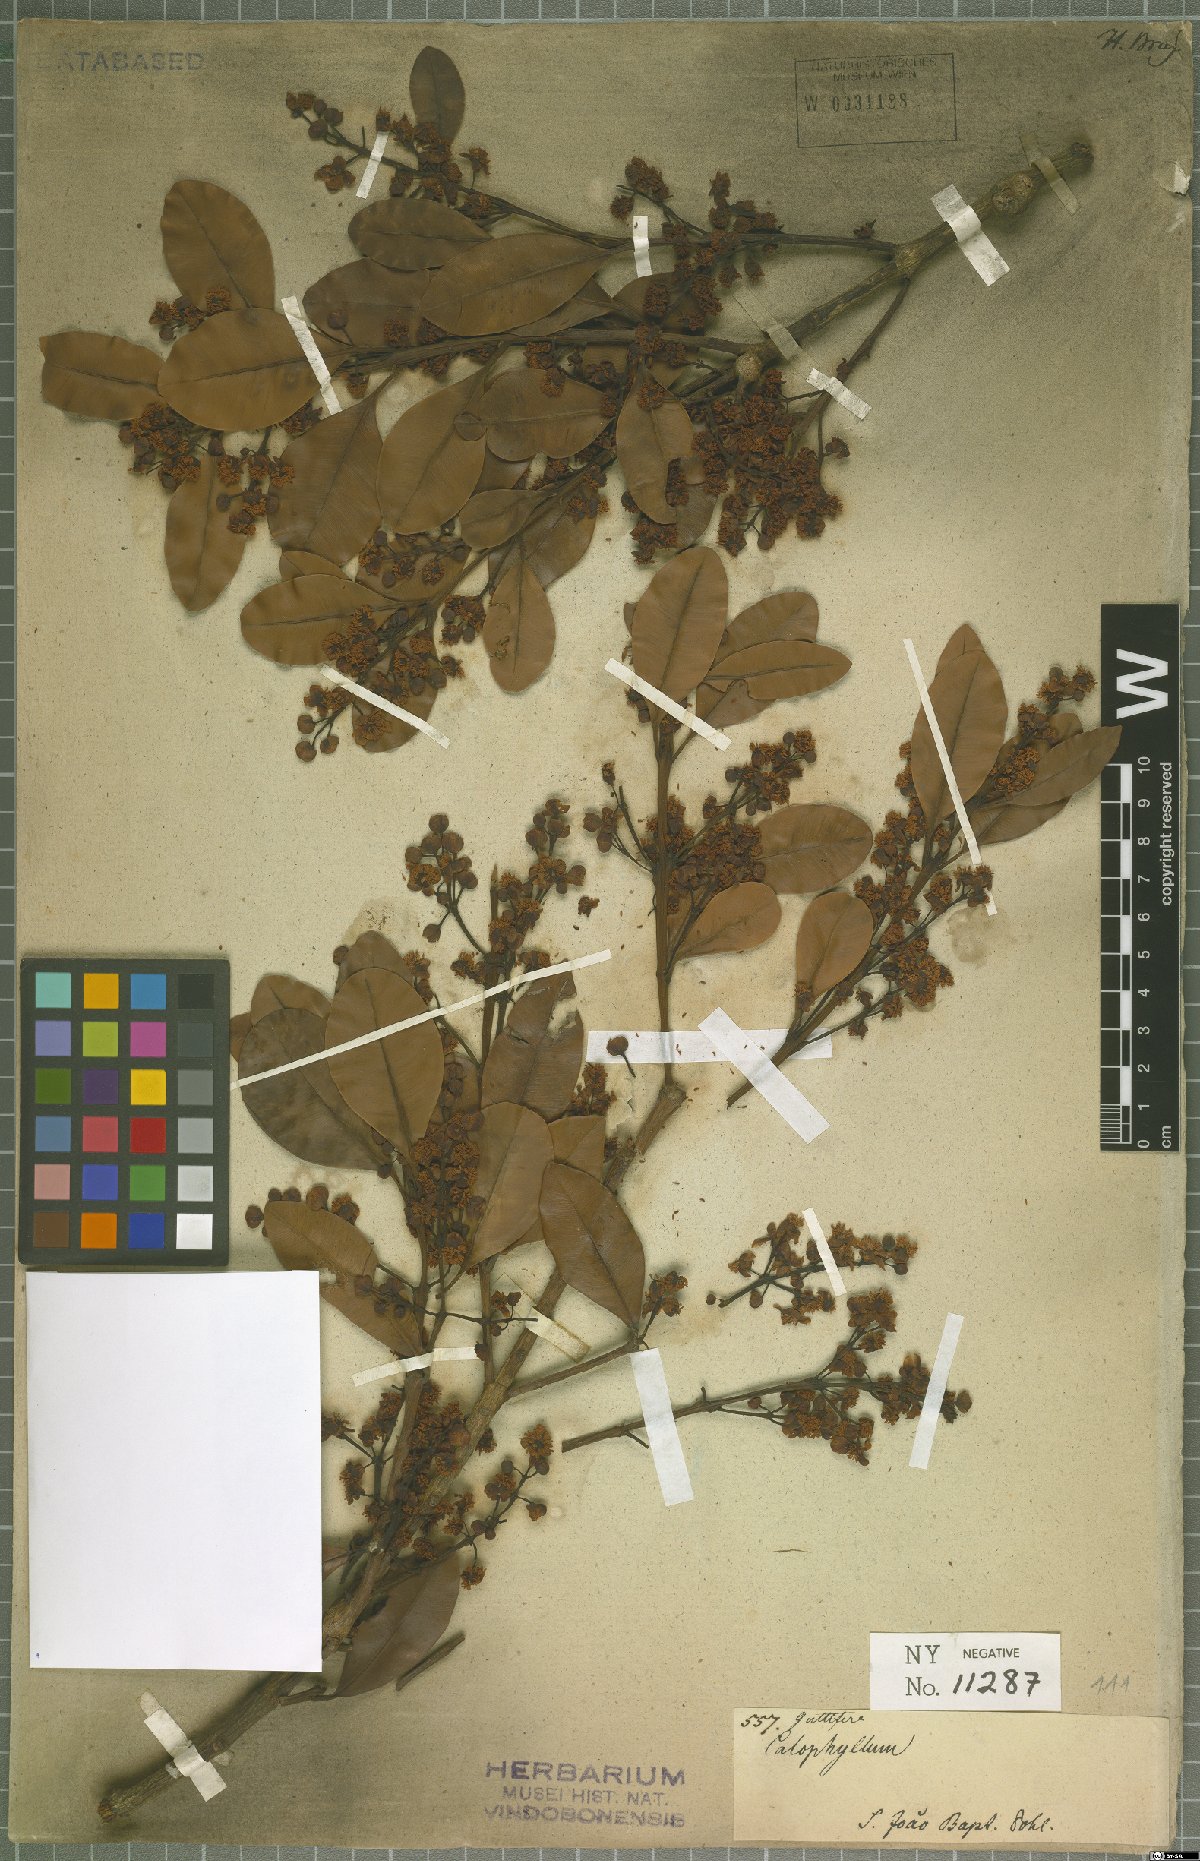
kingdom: Plantae
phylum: Tracheophyta
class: Magnoliopsida
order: Malpighiales
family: Calophyllaceae
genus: Calophyllum
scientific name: Calophyllum
